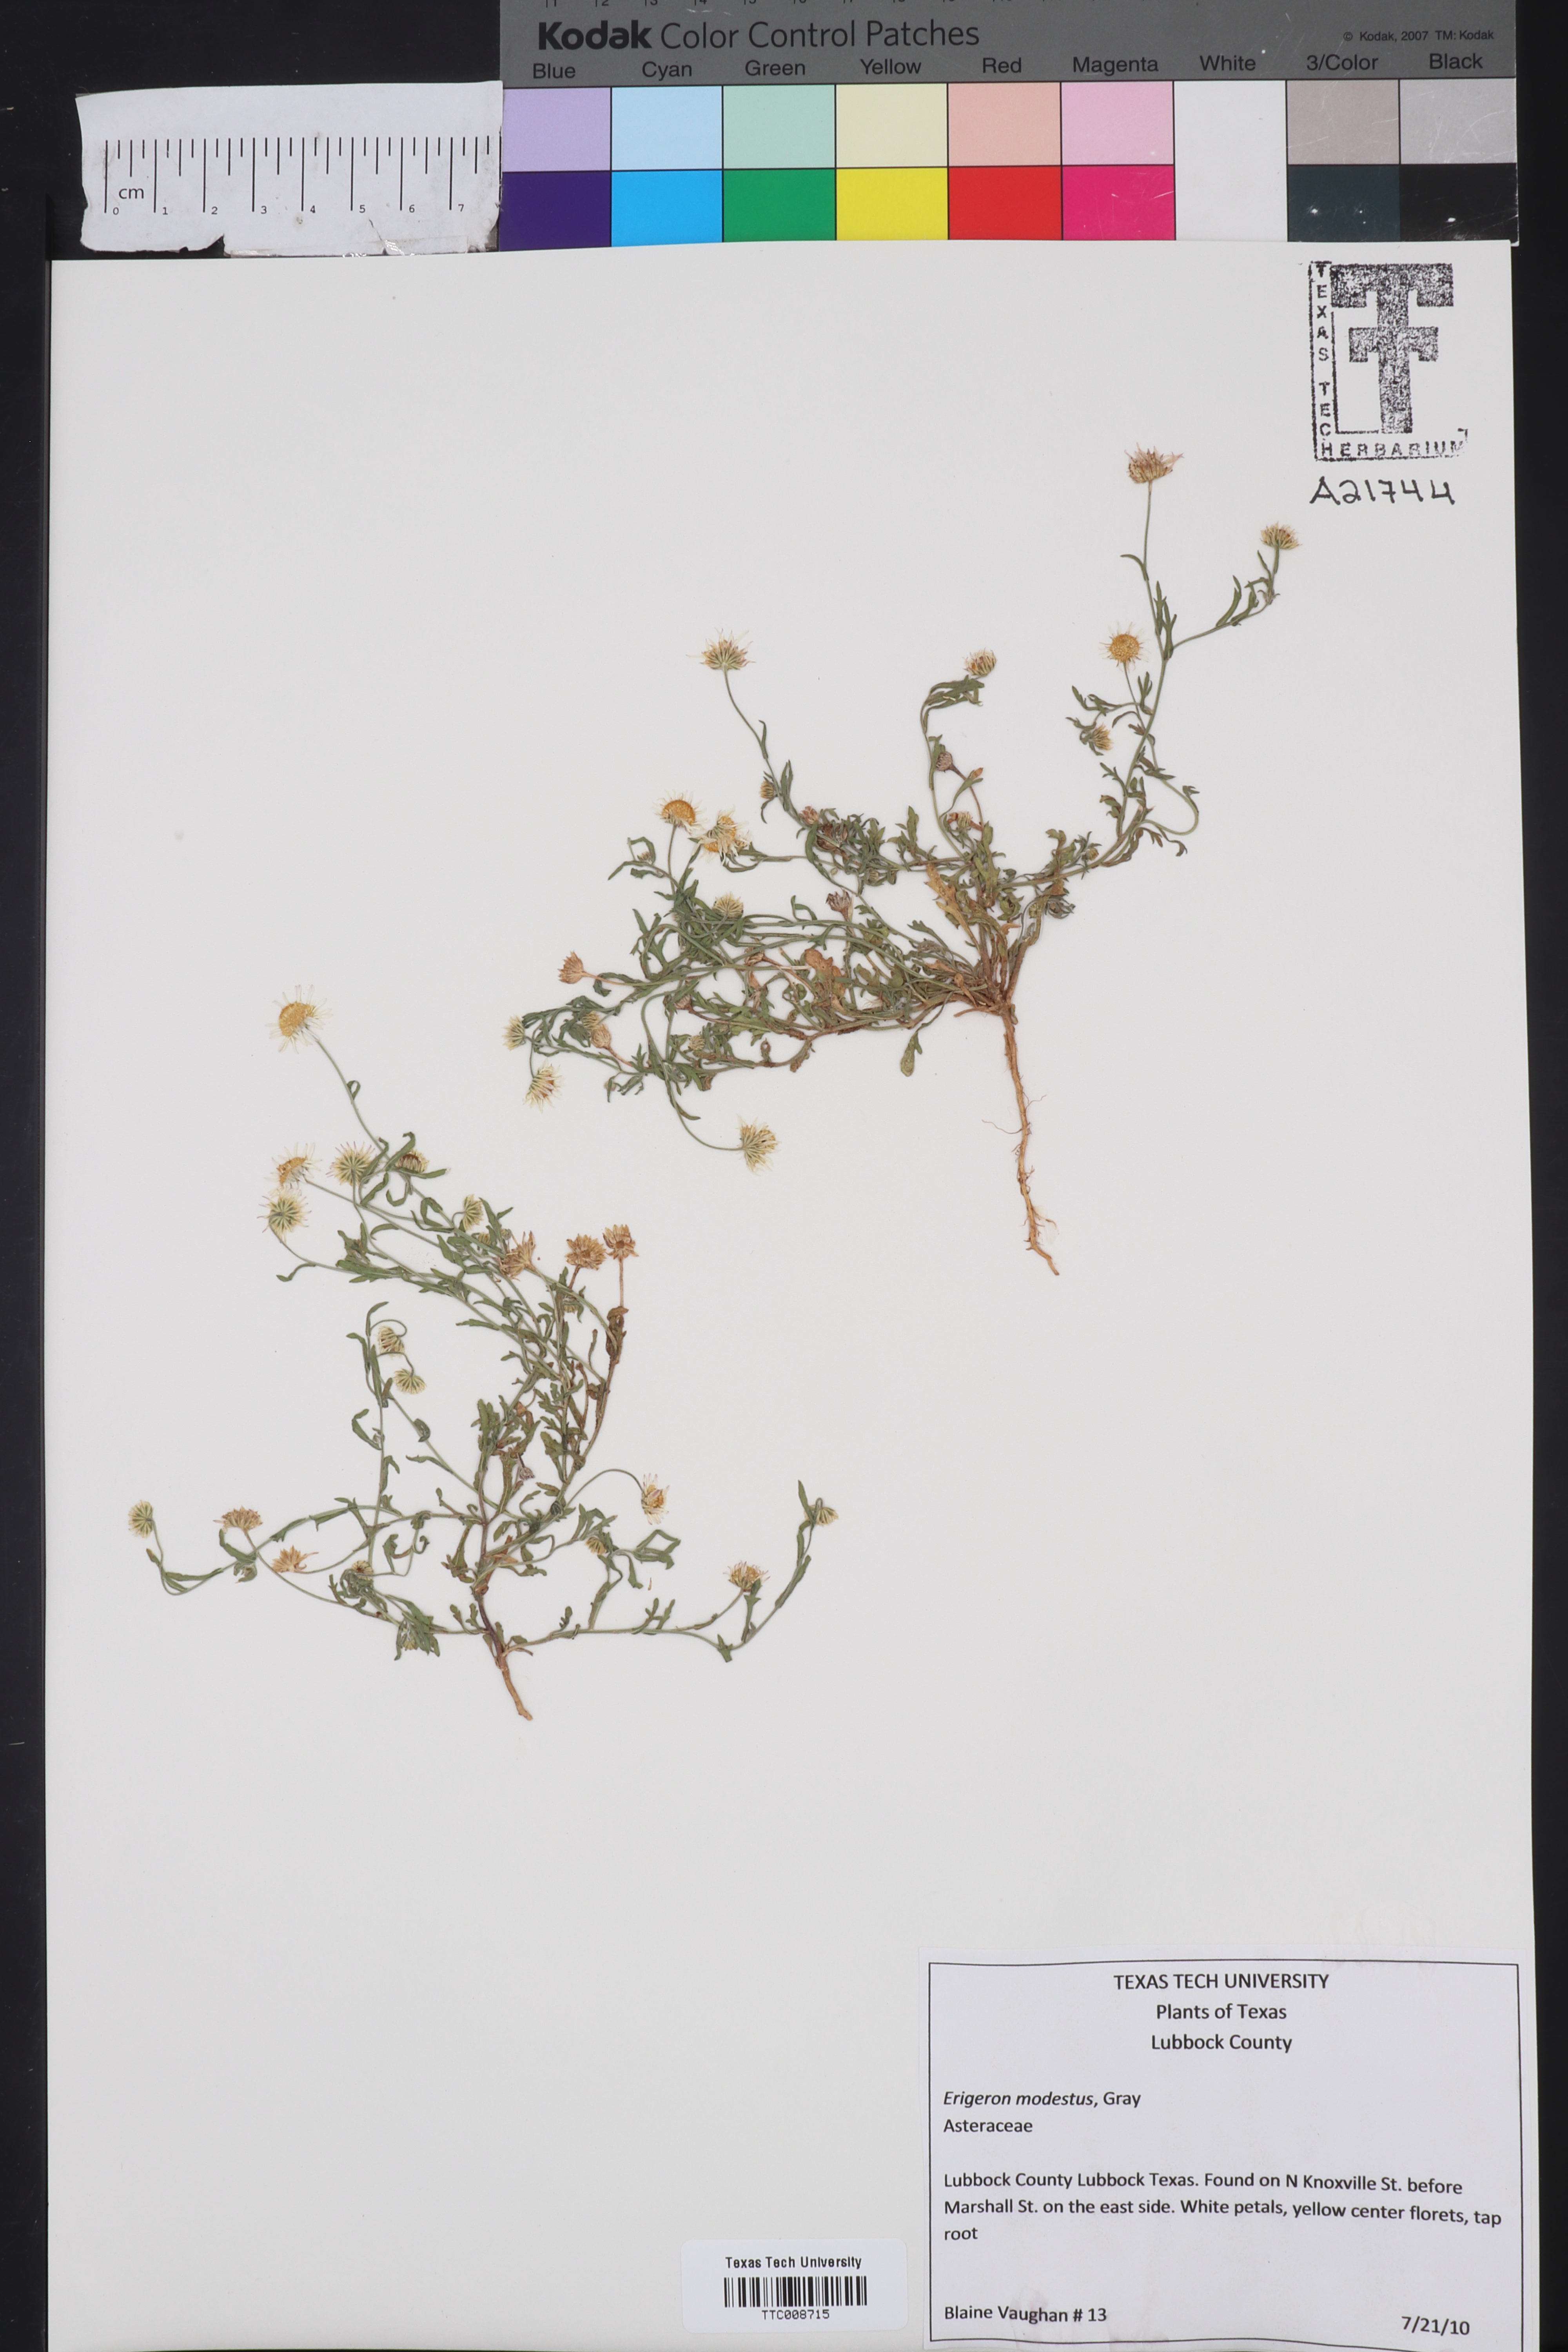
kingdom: Plantae
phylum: Tracheophyta
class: Magnoliopsida
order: Asterales
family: Asteraceae
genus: Erigeron
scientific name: Erigeron modestus
